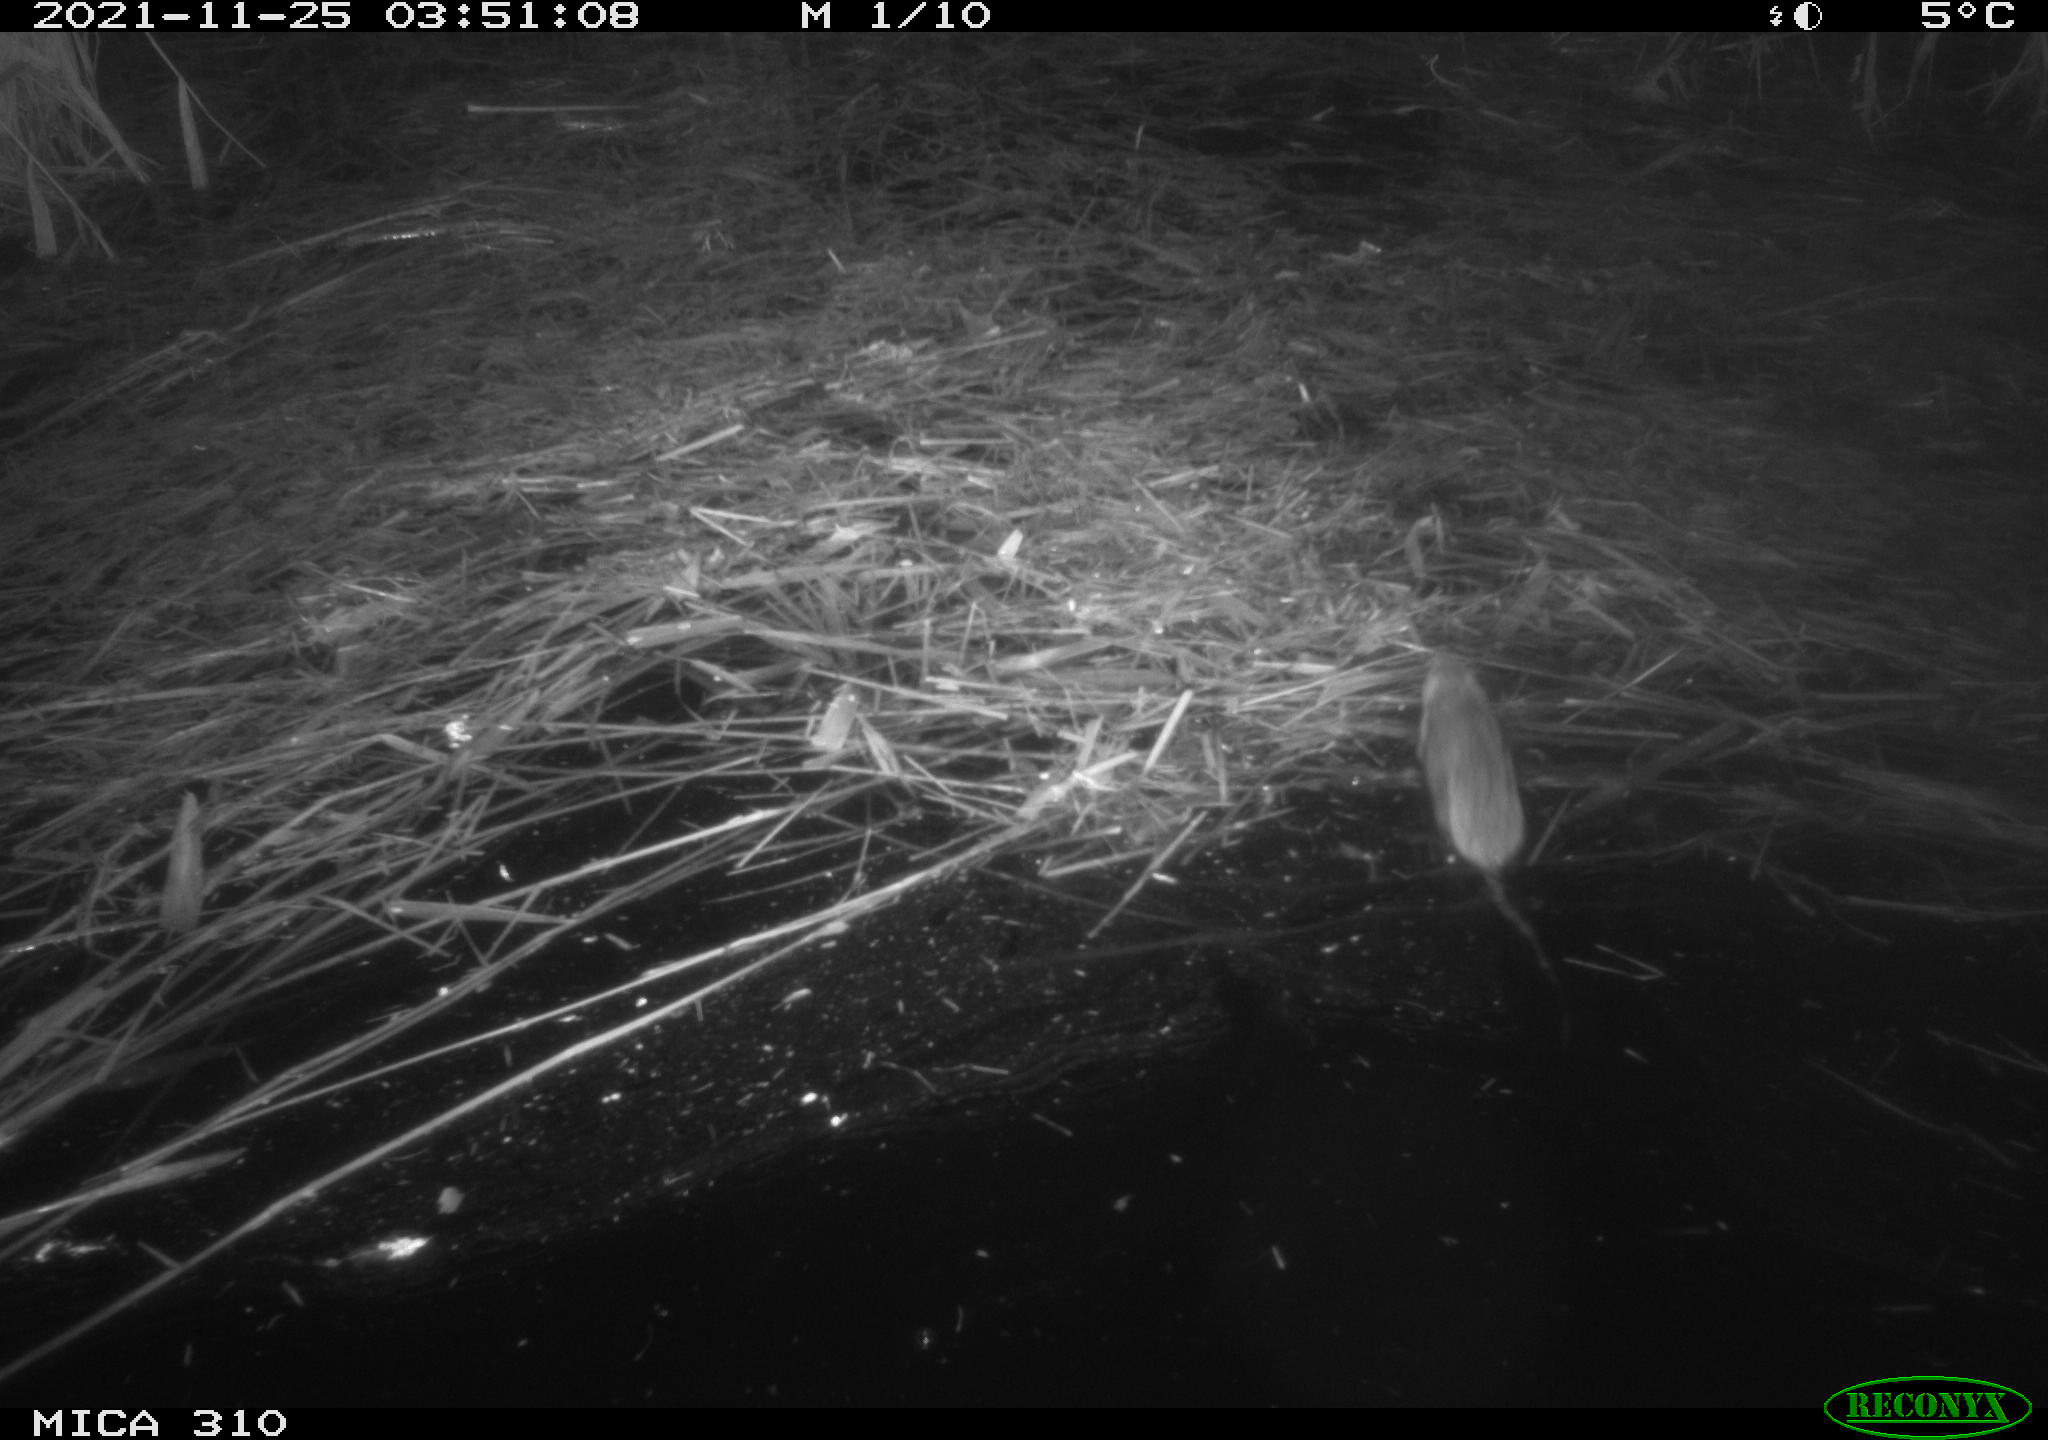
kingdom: Animalia
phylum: Chordata
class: Mammalia
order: Rodentia
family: Muridae
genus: Rattus
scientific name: Rattus norvegicus
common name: Brown rat
